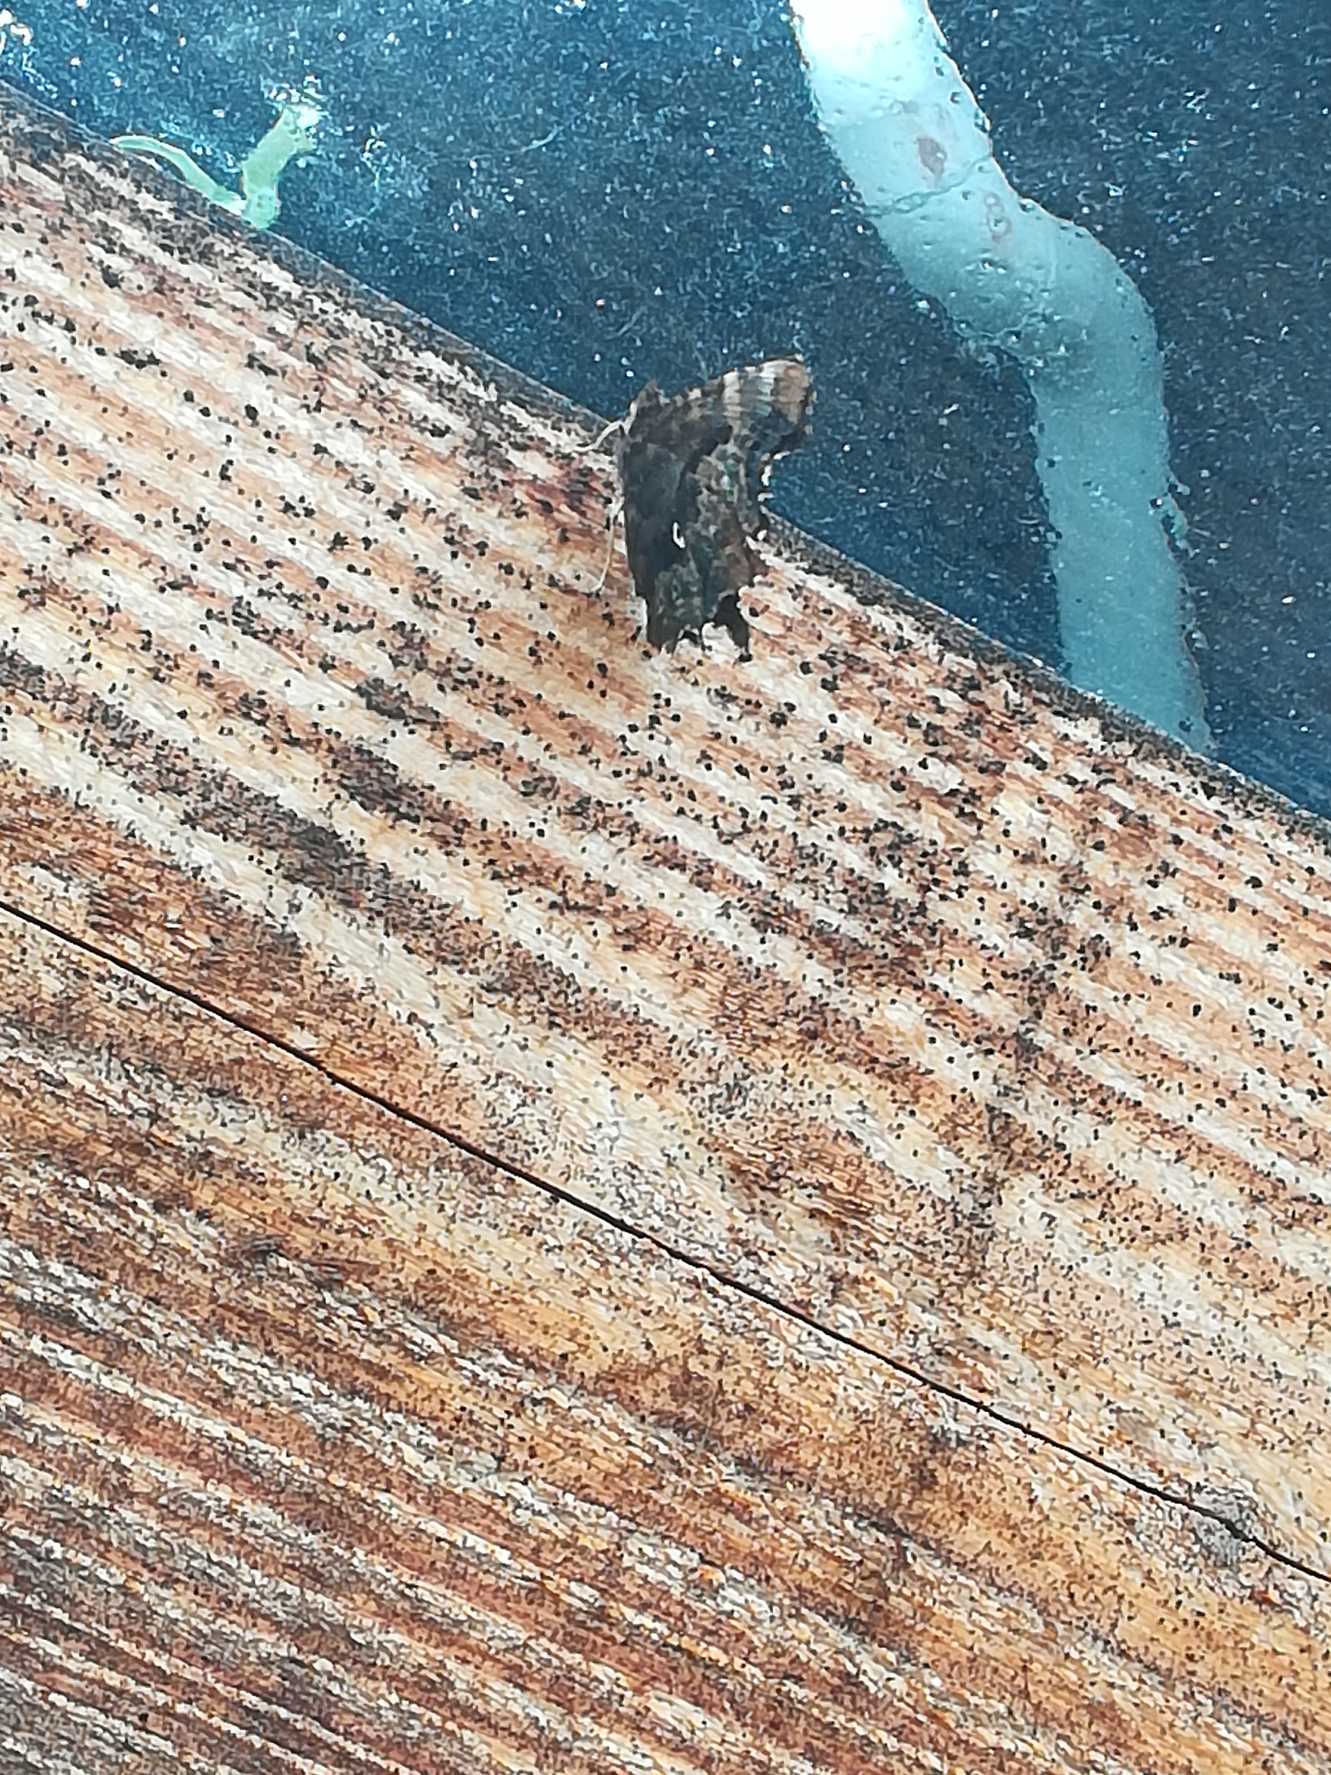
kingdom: Animalia
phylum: Arthropoda
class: Insecta
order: Lepidoptera
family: Nymphalidae
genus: Polygonia
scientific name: Polygonia c-album
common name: Det hvide C
